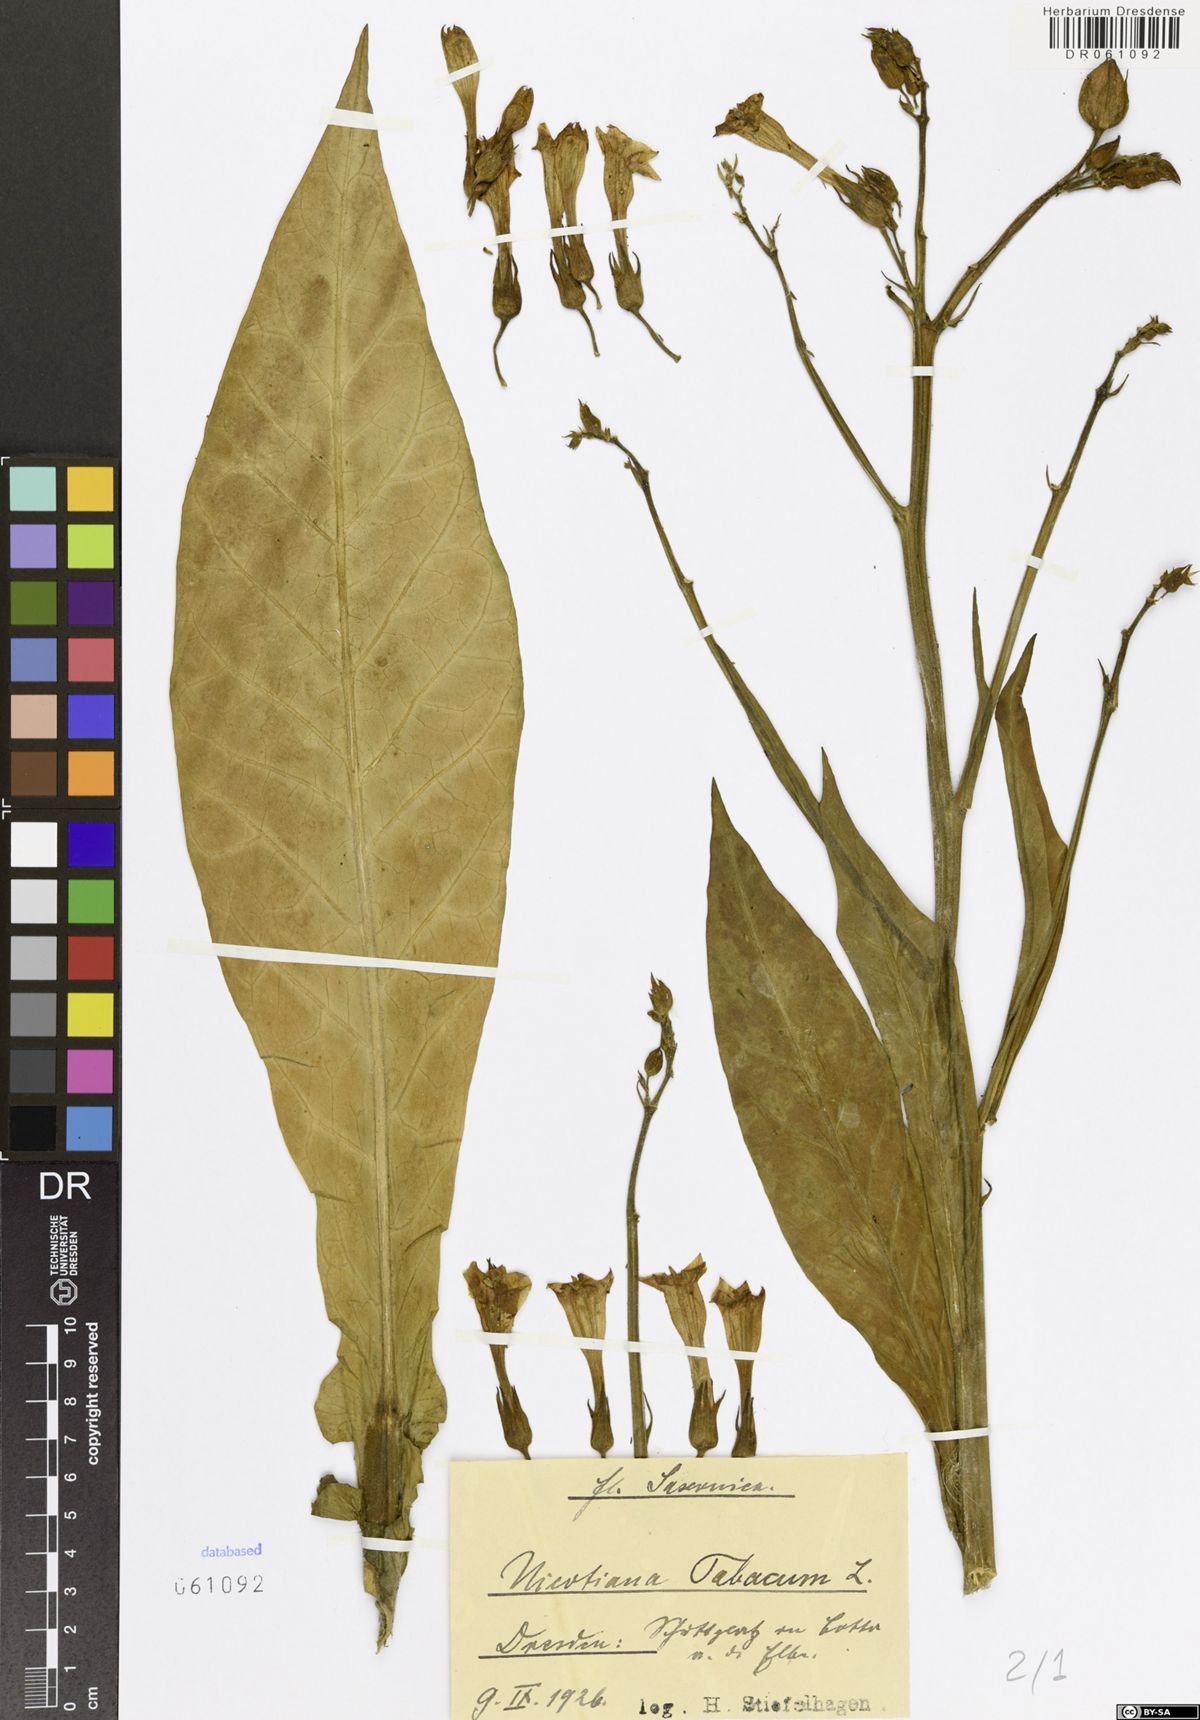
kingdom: Plantae
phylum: Tracheophyta
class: Magnoliopsida
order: Solanales
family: Solanaceae
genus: Nicotiana
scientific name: Nicotiana tabacum
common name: Tobacco
